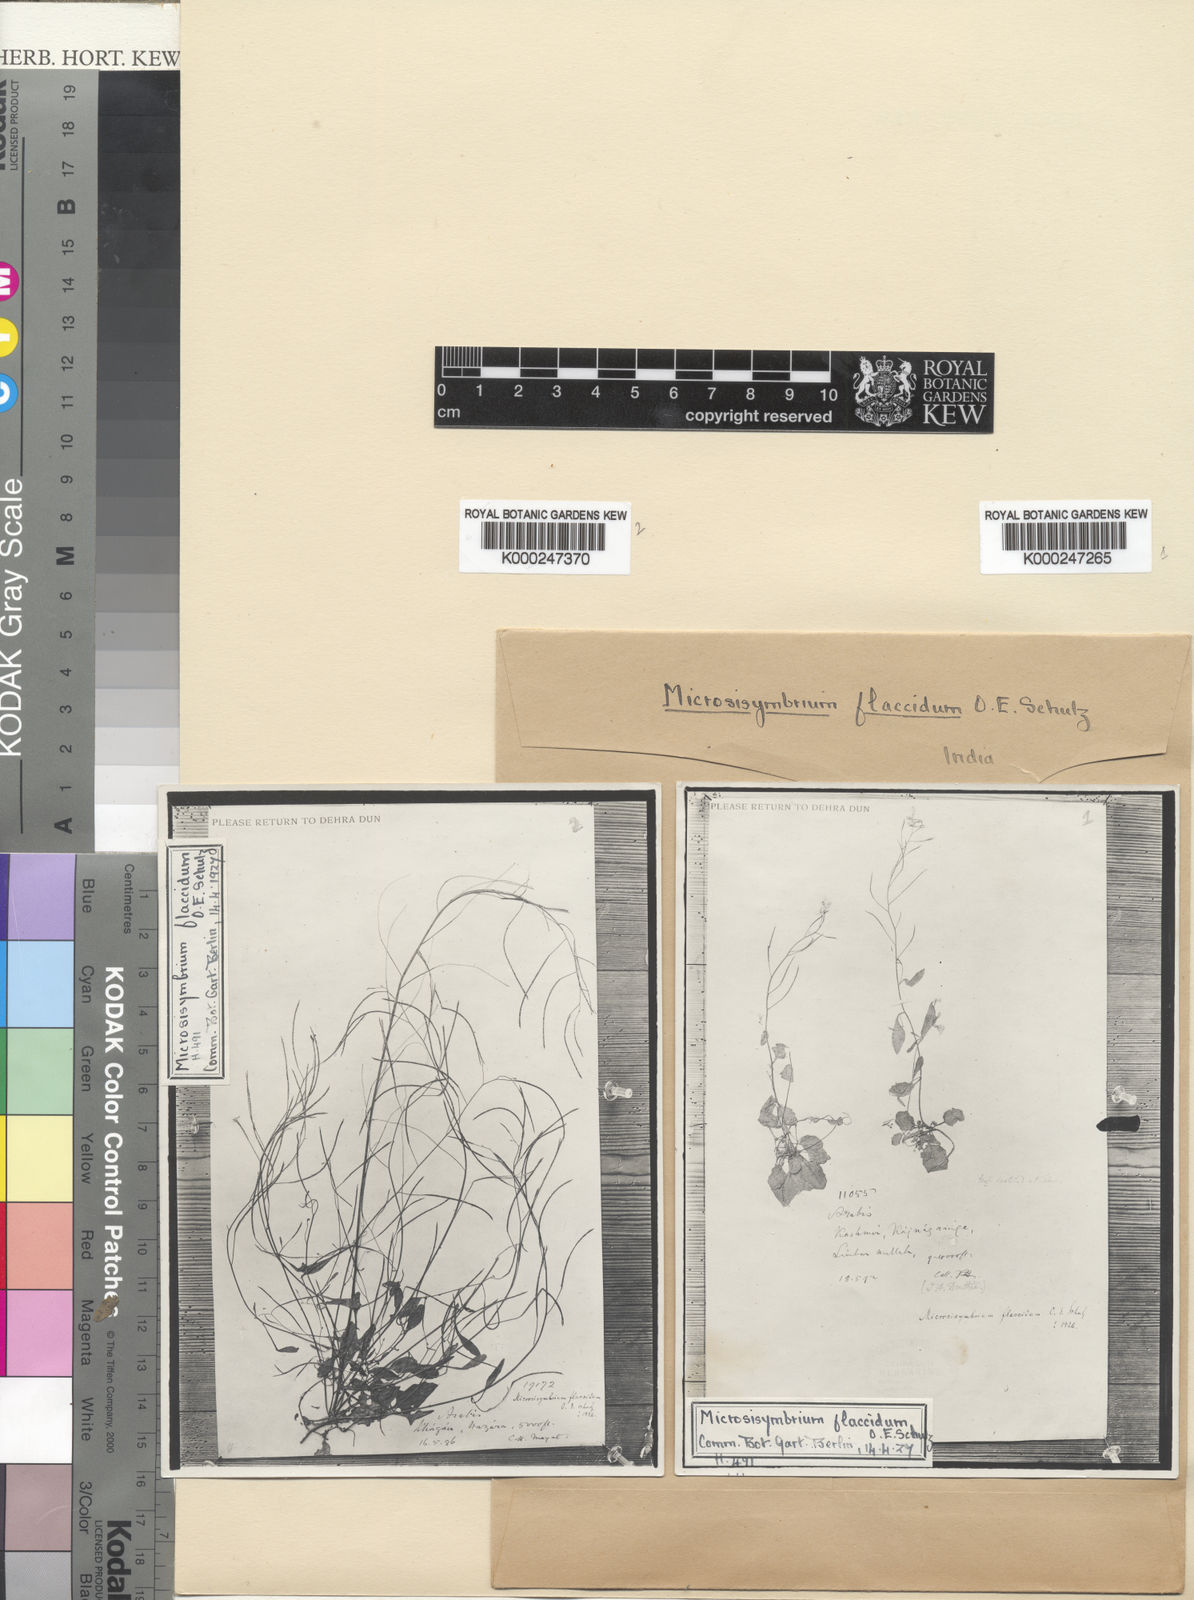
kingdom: Plantae
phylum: Tracheophyta
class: Magnoliopsida
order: Brassicales
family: Brassicaceae
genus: Crucihimalaya
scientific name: Crucihimalaya wallichii
